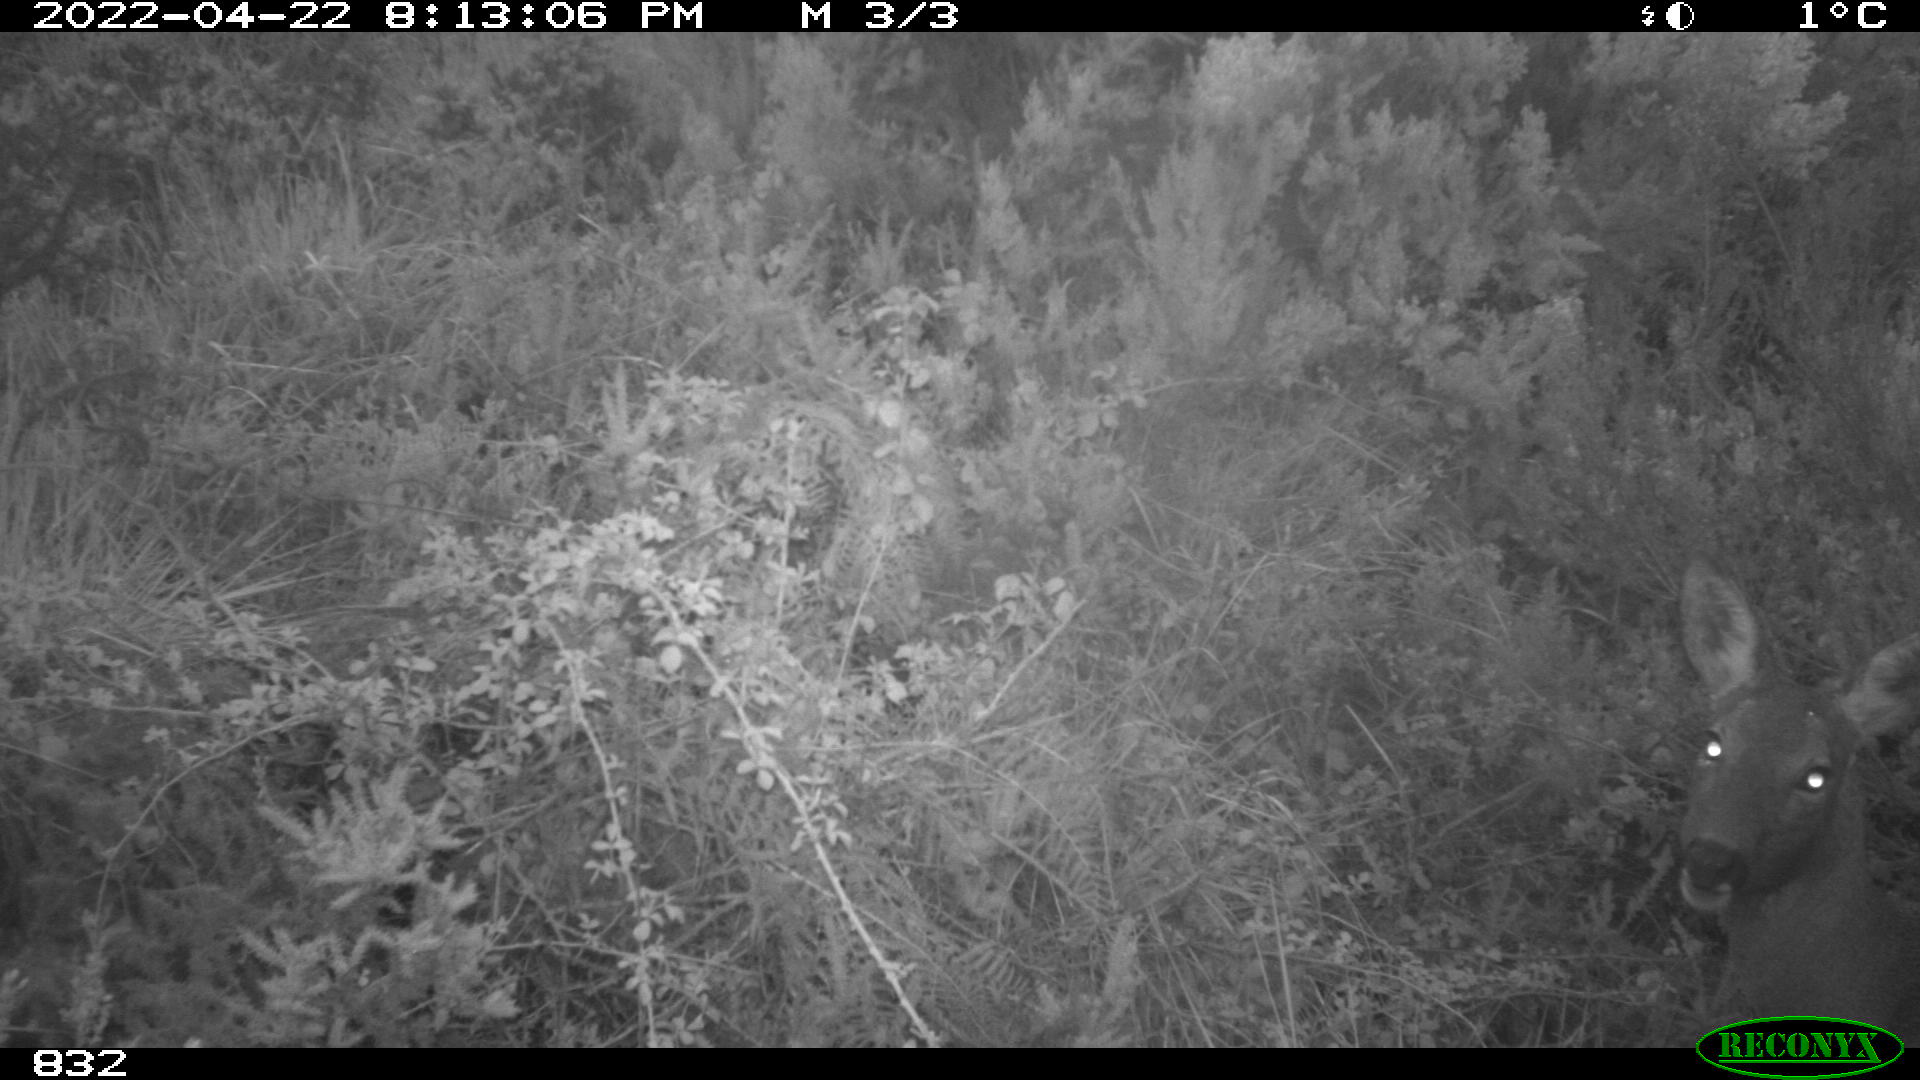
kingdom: Animalia
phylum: Chordata
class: Mammalia
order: Artiodactyla
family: Cervidae
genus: Capreolus
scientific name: Capreolus capreolus
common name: Western roe deer
